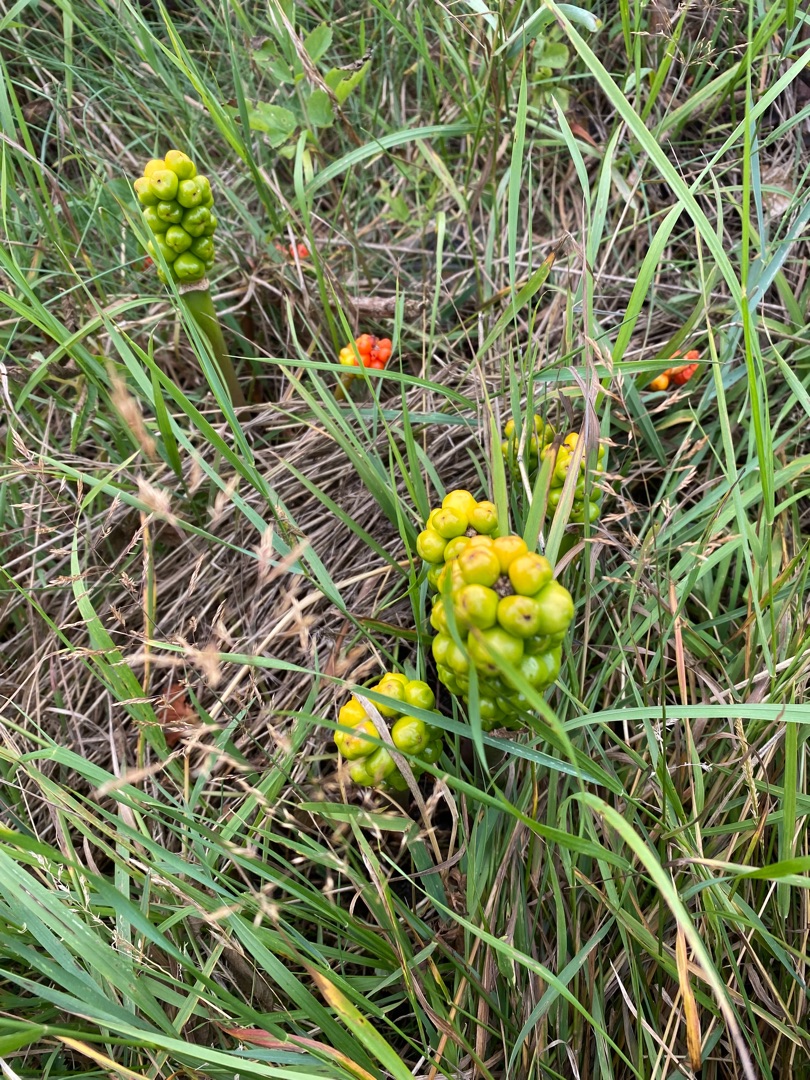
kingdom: Plantae
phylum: Tracheophyta
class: Liliopsida
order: Alismatales
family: Araceae
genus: Arum
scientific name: Arum italicum
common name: Italiensk arum
